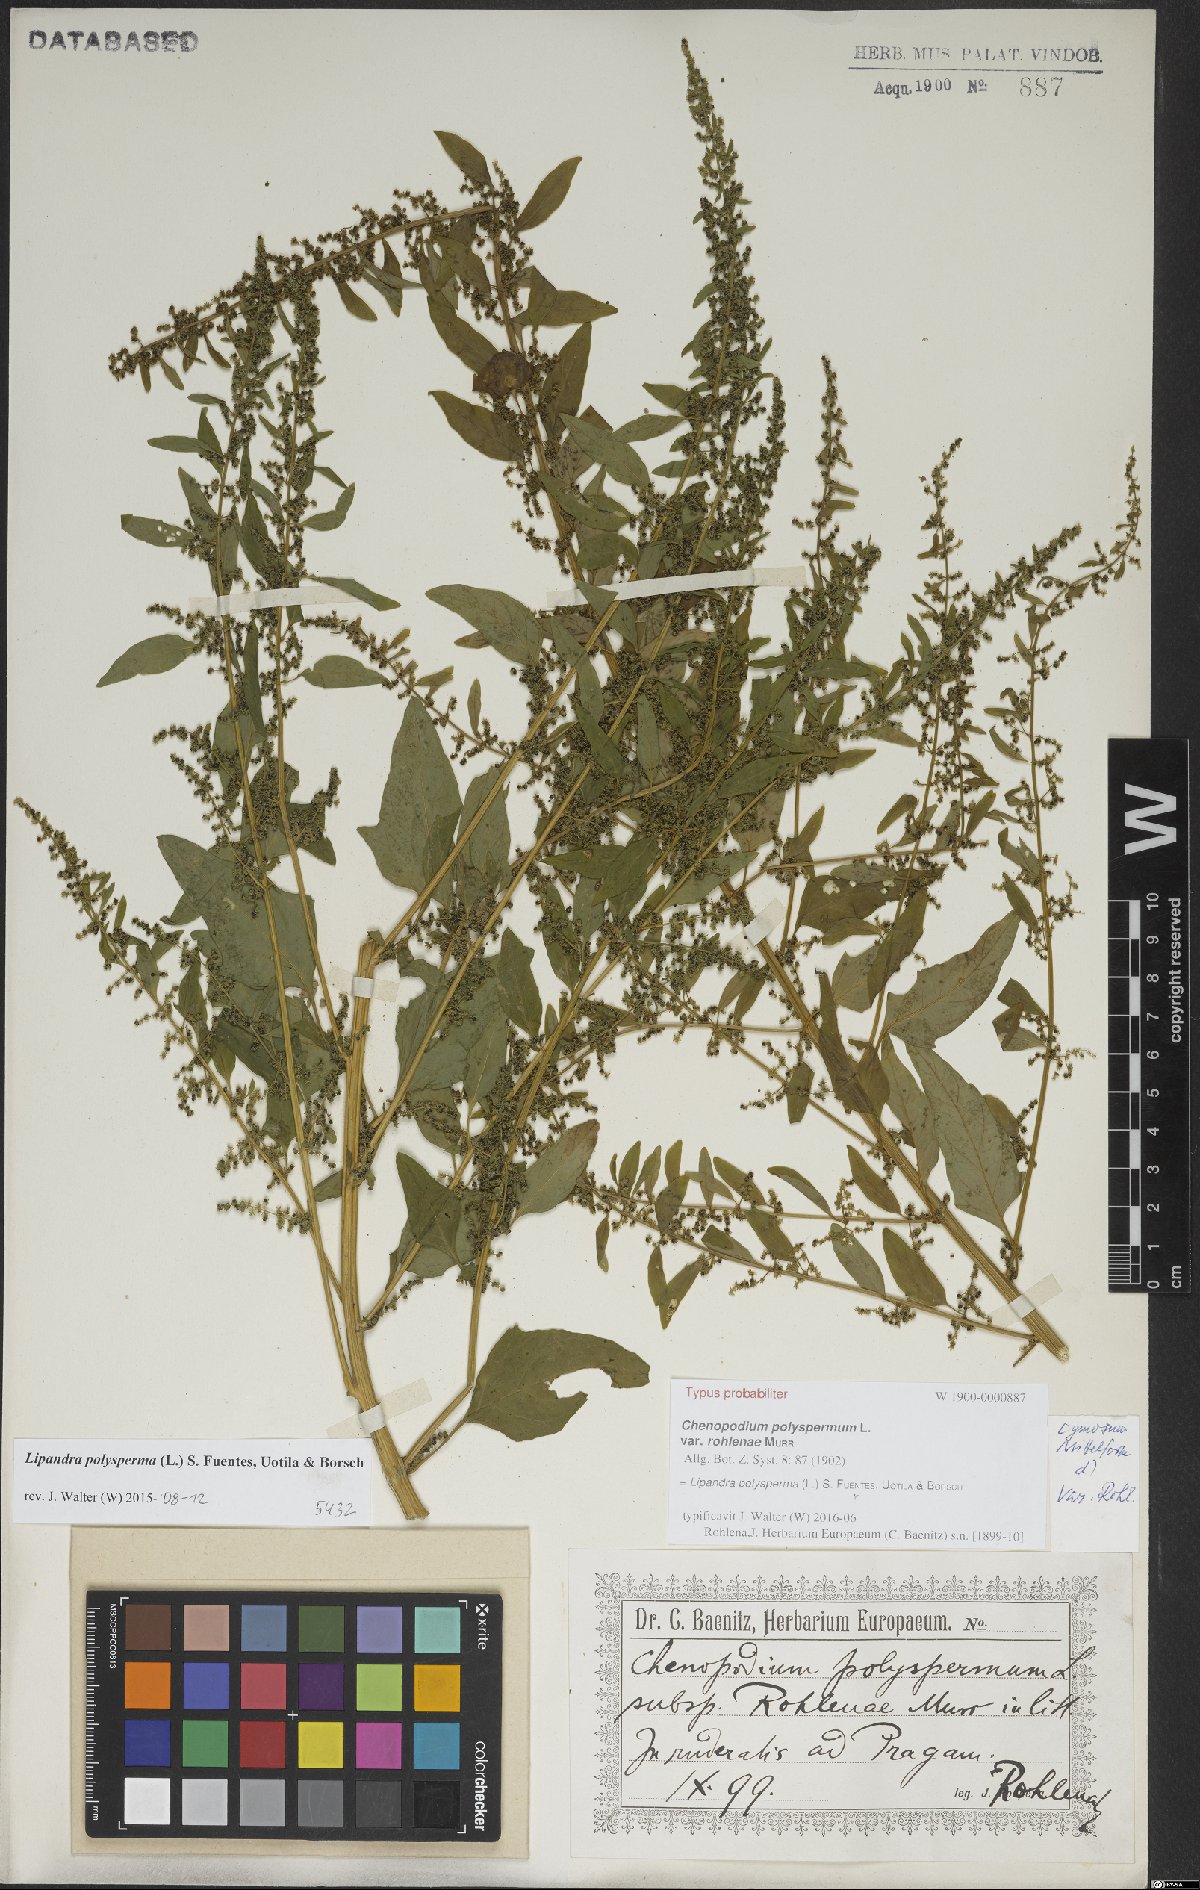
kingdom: Plantae
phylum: Tracheophyta
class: Magnoliopsida
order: Caryophyllales
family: Amaranthaceae
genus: Lipandra
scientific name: Lipandra polysperma
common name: Many-seed goosefoot
